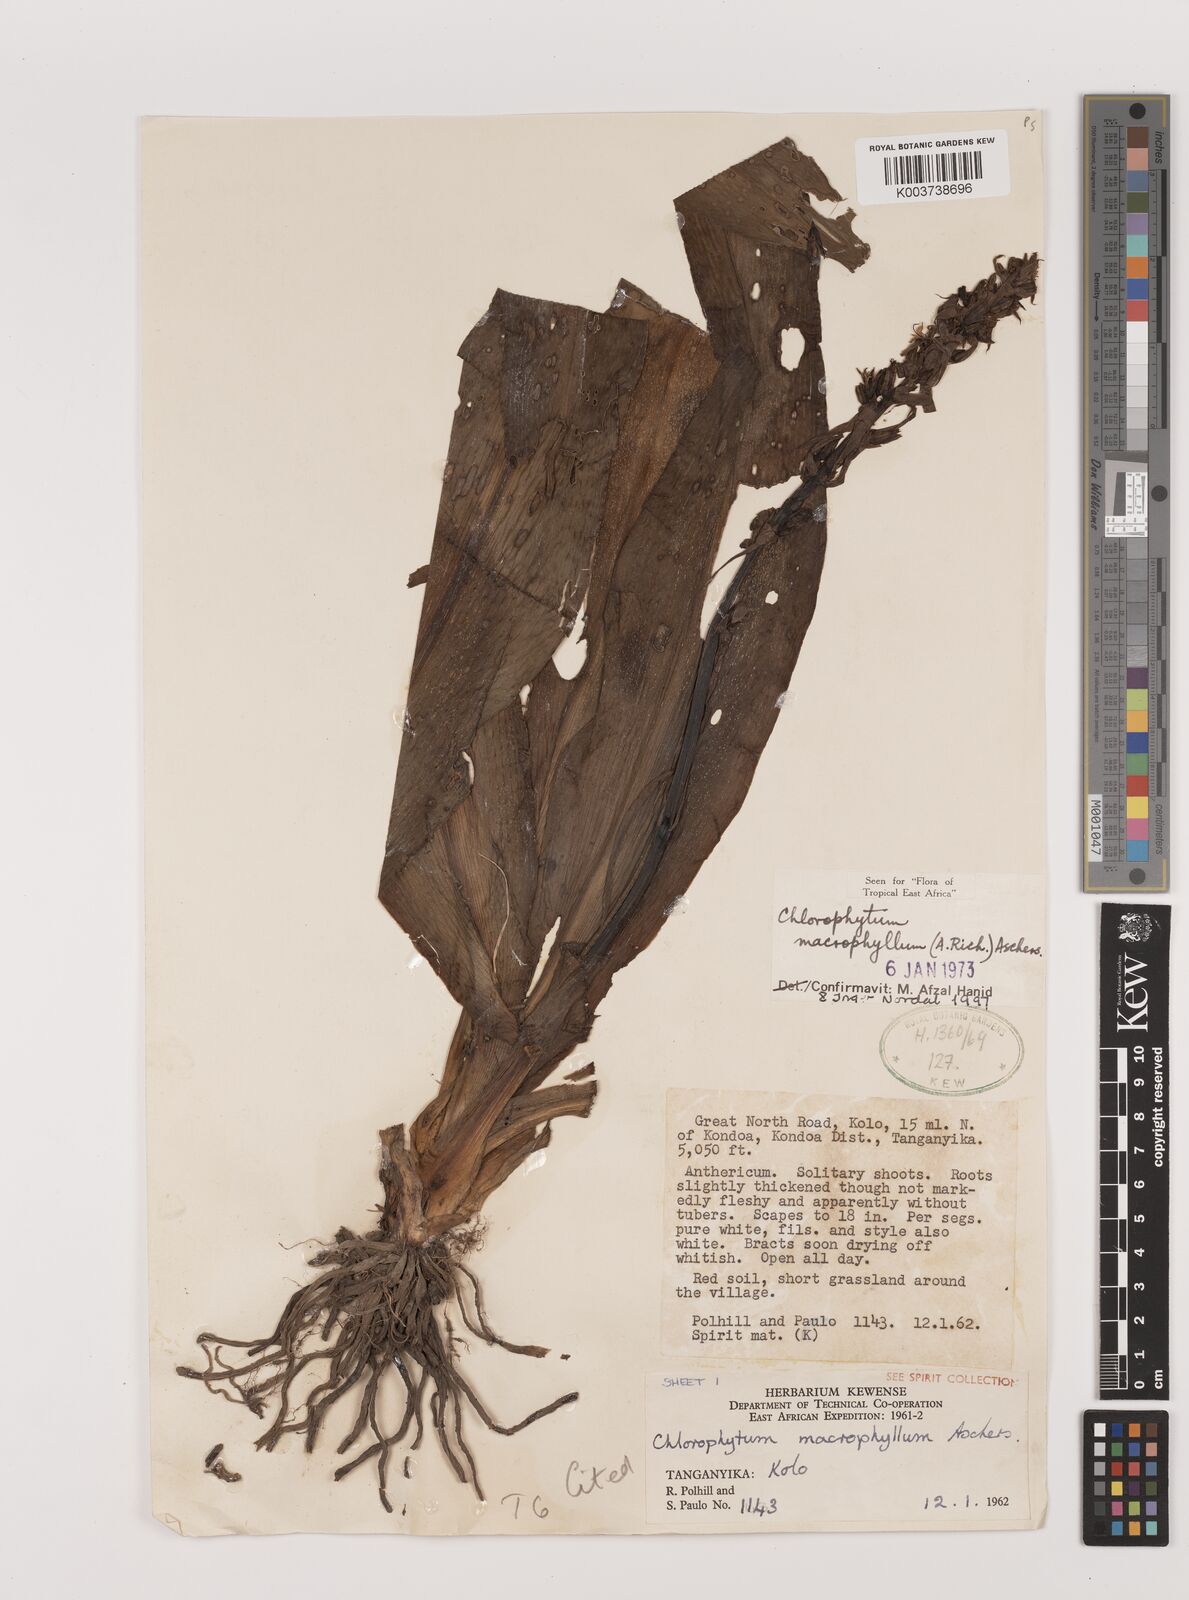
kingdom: Plantae
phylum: Tracheophyta
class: Liliopsida
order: Asparagales
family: Asparagaceae
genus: Chlorophytum
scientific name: Chlorophytum macrophyllum
